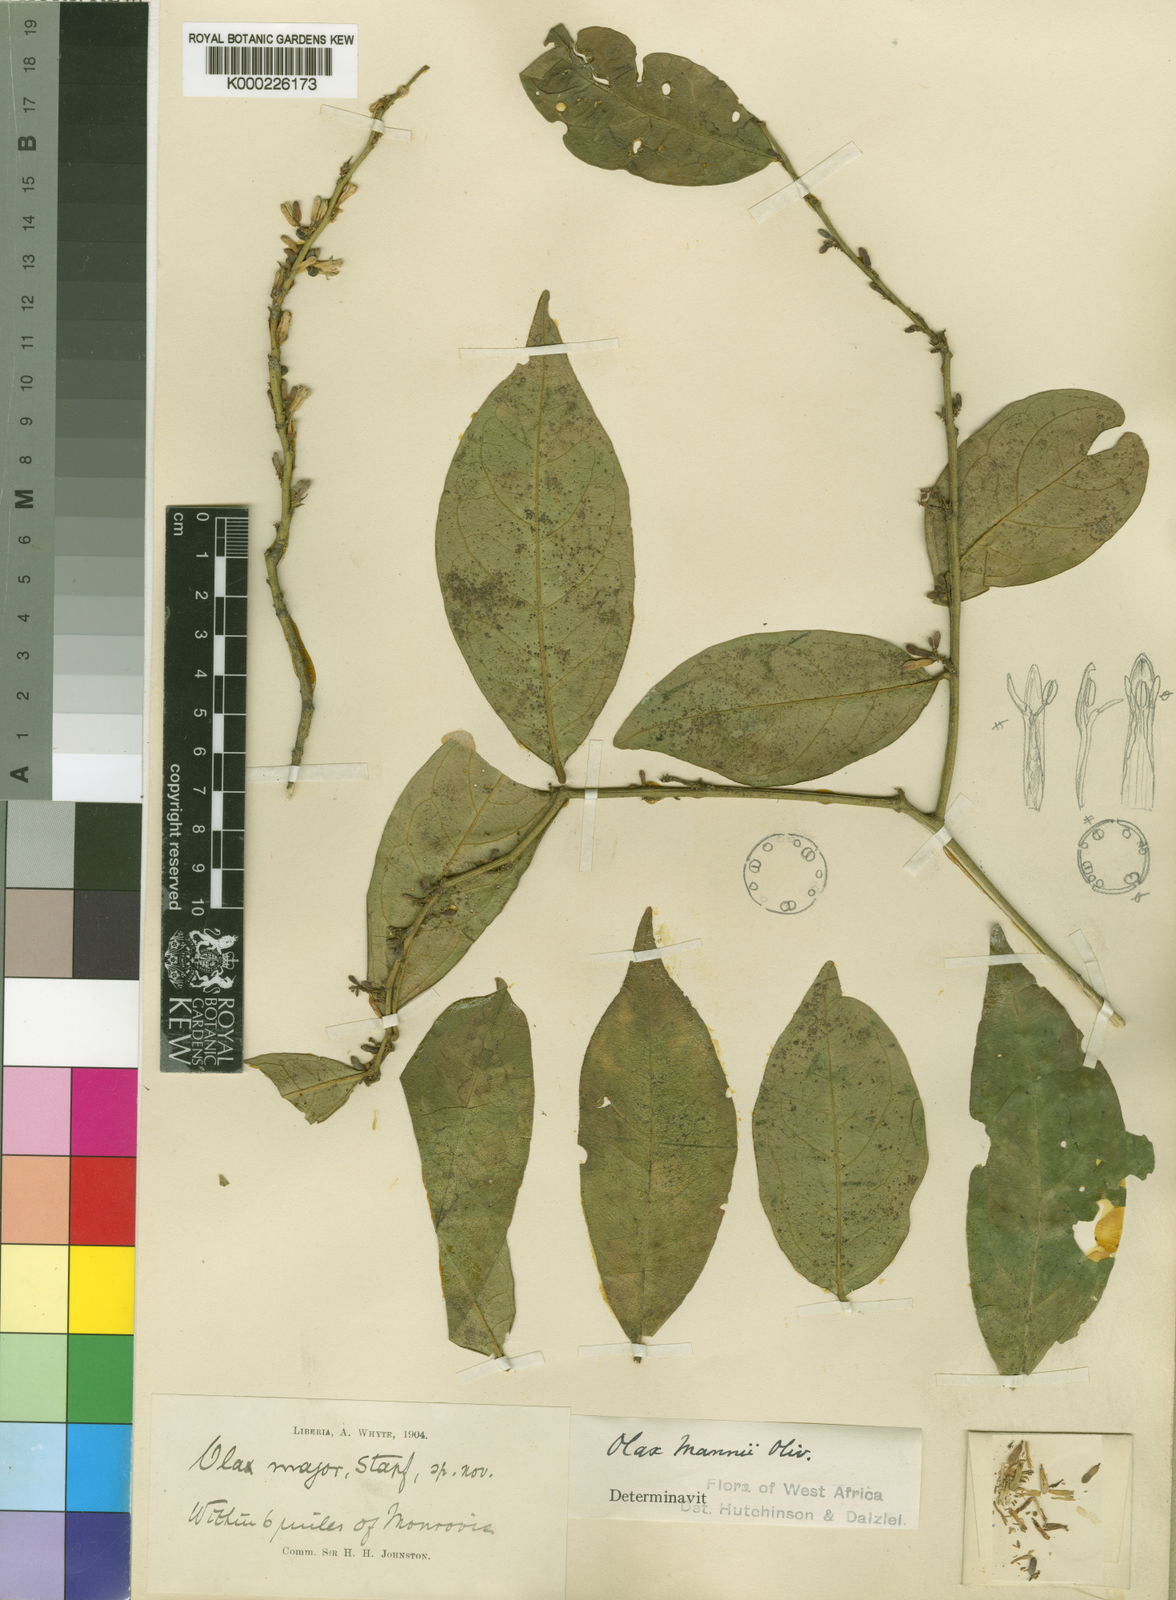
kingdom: Plantae
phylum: Tracheophyta
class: Magnoliopsida
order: Santalales
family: Olacaceae
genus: Olax
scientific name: Olax mannii
